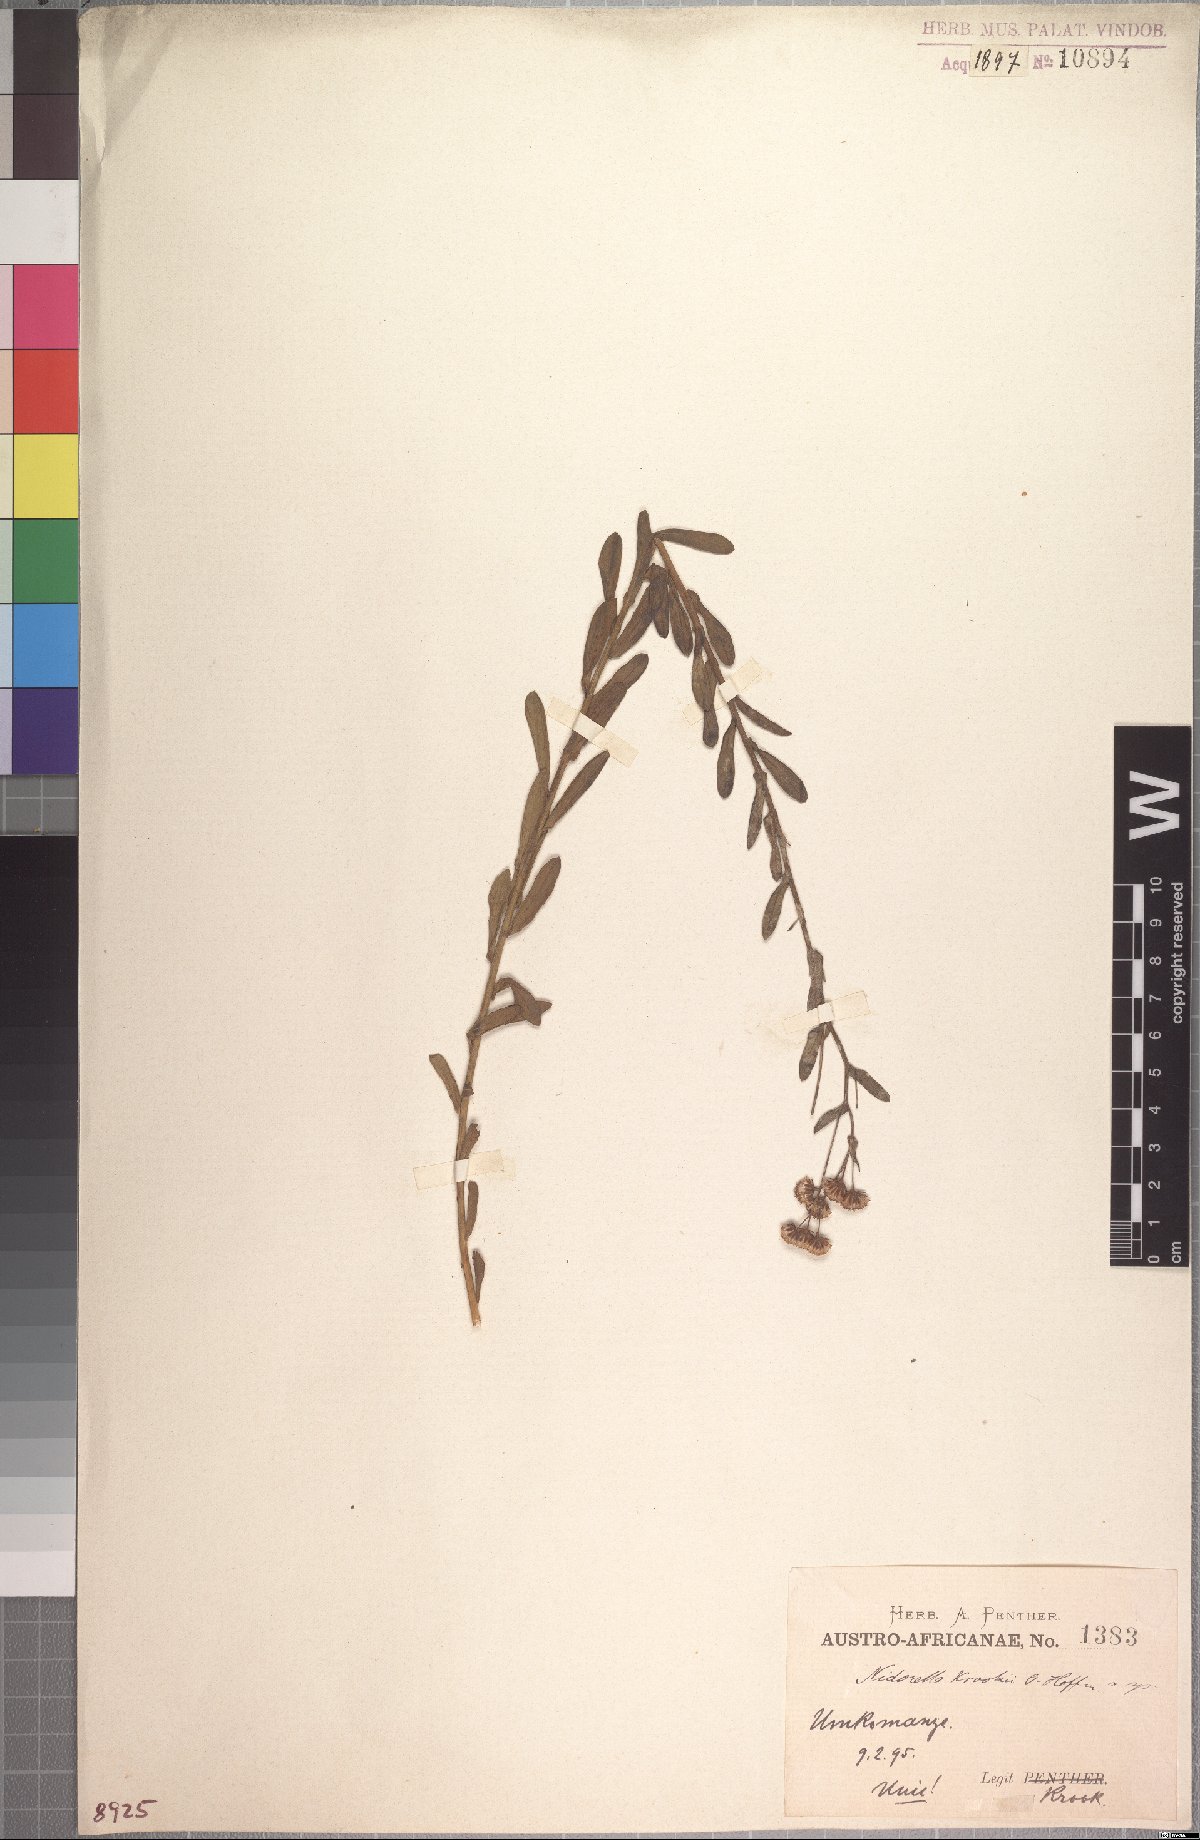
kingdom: Plantae
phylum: Tracheophyta
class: Magnoliopsida
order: Asterales
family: Asteraceae
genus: Nidorella
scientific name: Nidorella resedifolia
